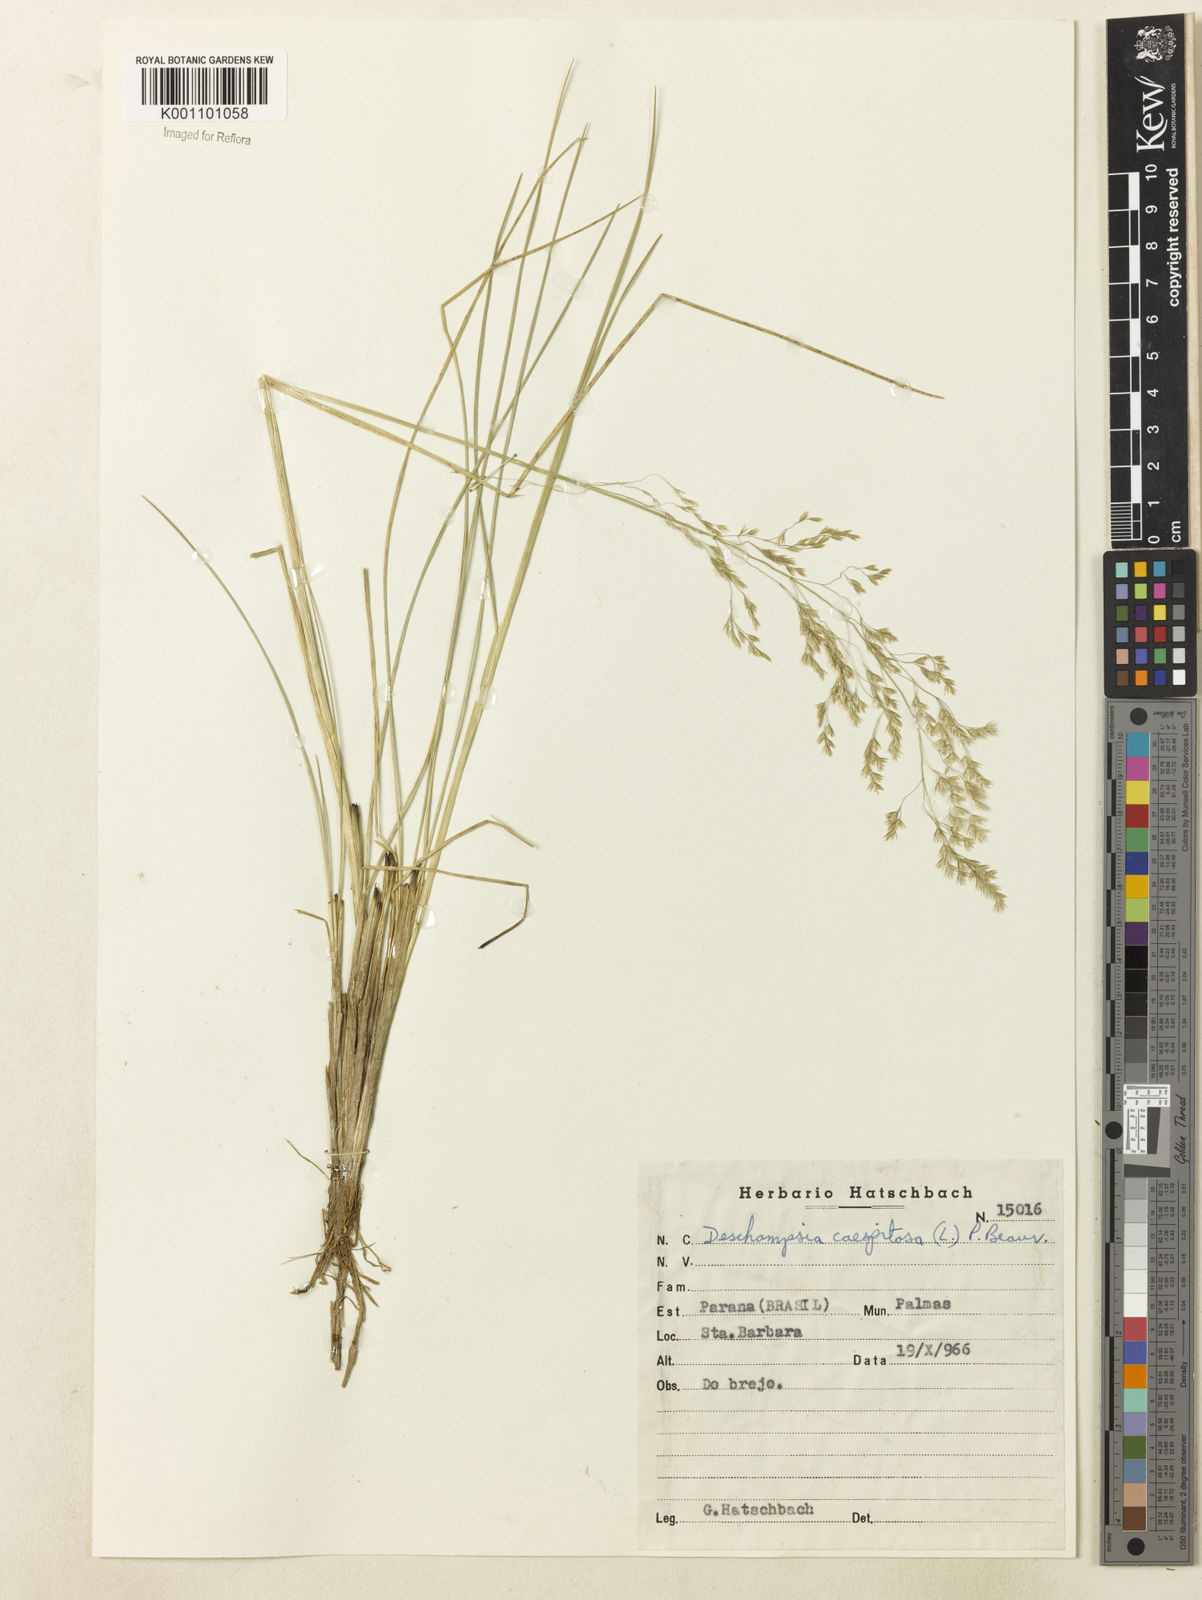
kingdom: Plantae
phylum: Tracheophyta
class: Liliopsida
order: Poales
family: Poaceae
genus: Deschampsia
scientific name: Deschampsia
